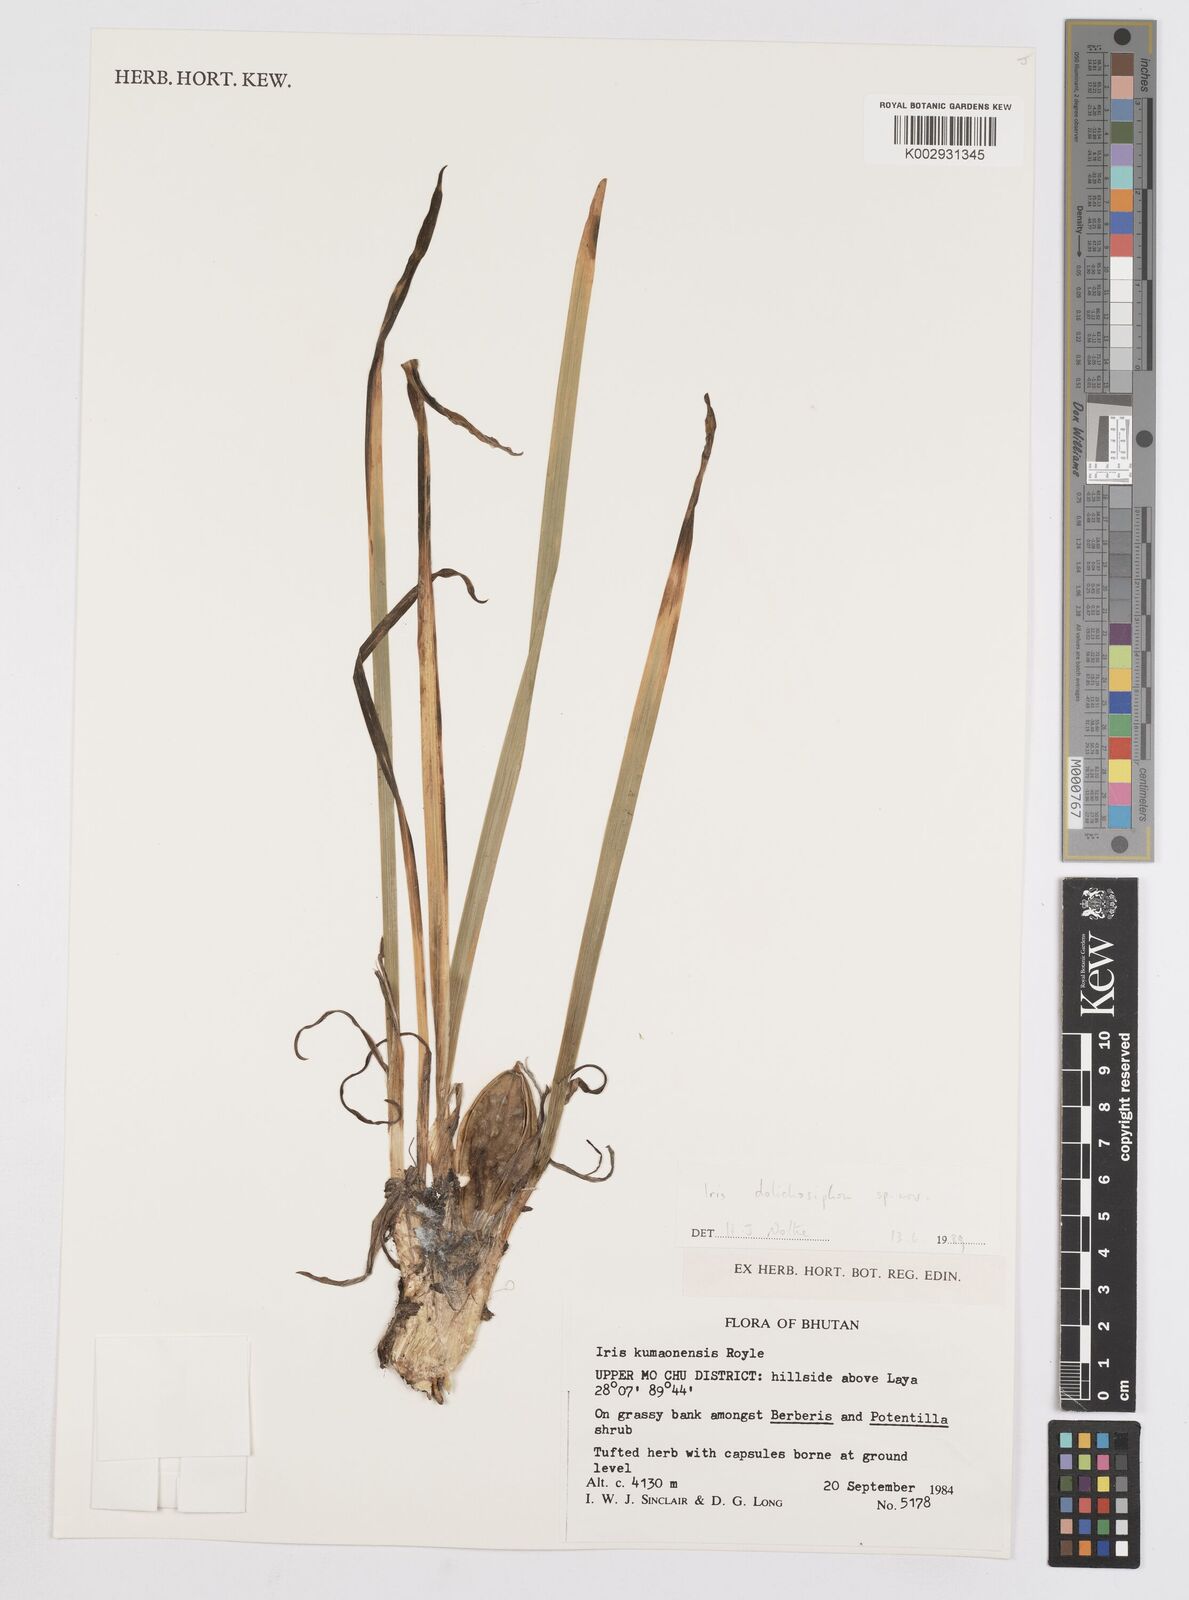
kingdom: Plantae
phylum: Tracheophyta
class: Liliopsida
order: Asparagales
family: Iridaceae
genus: Iris
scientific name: Iris dolichosiphon
